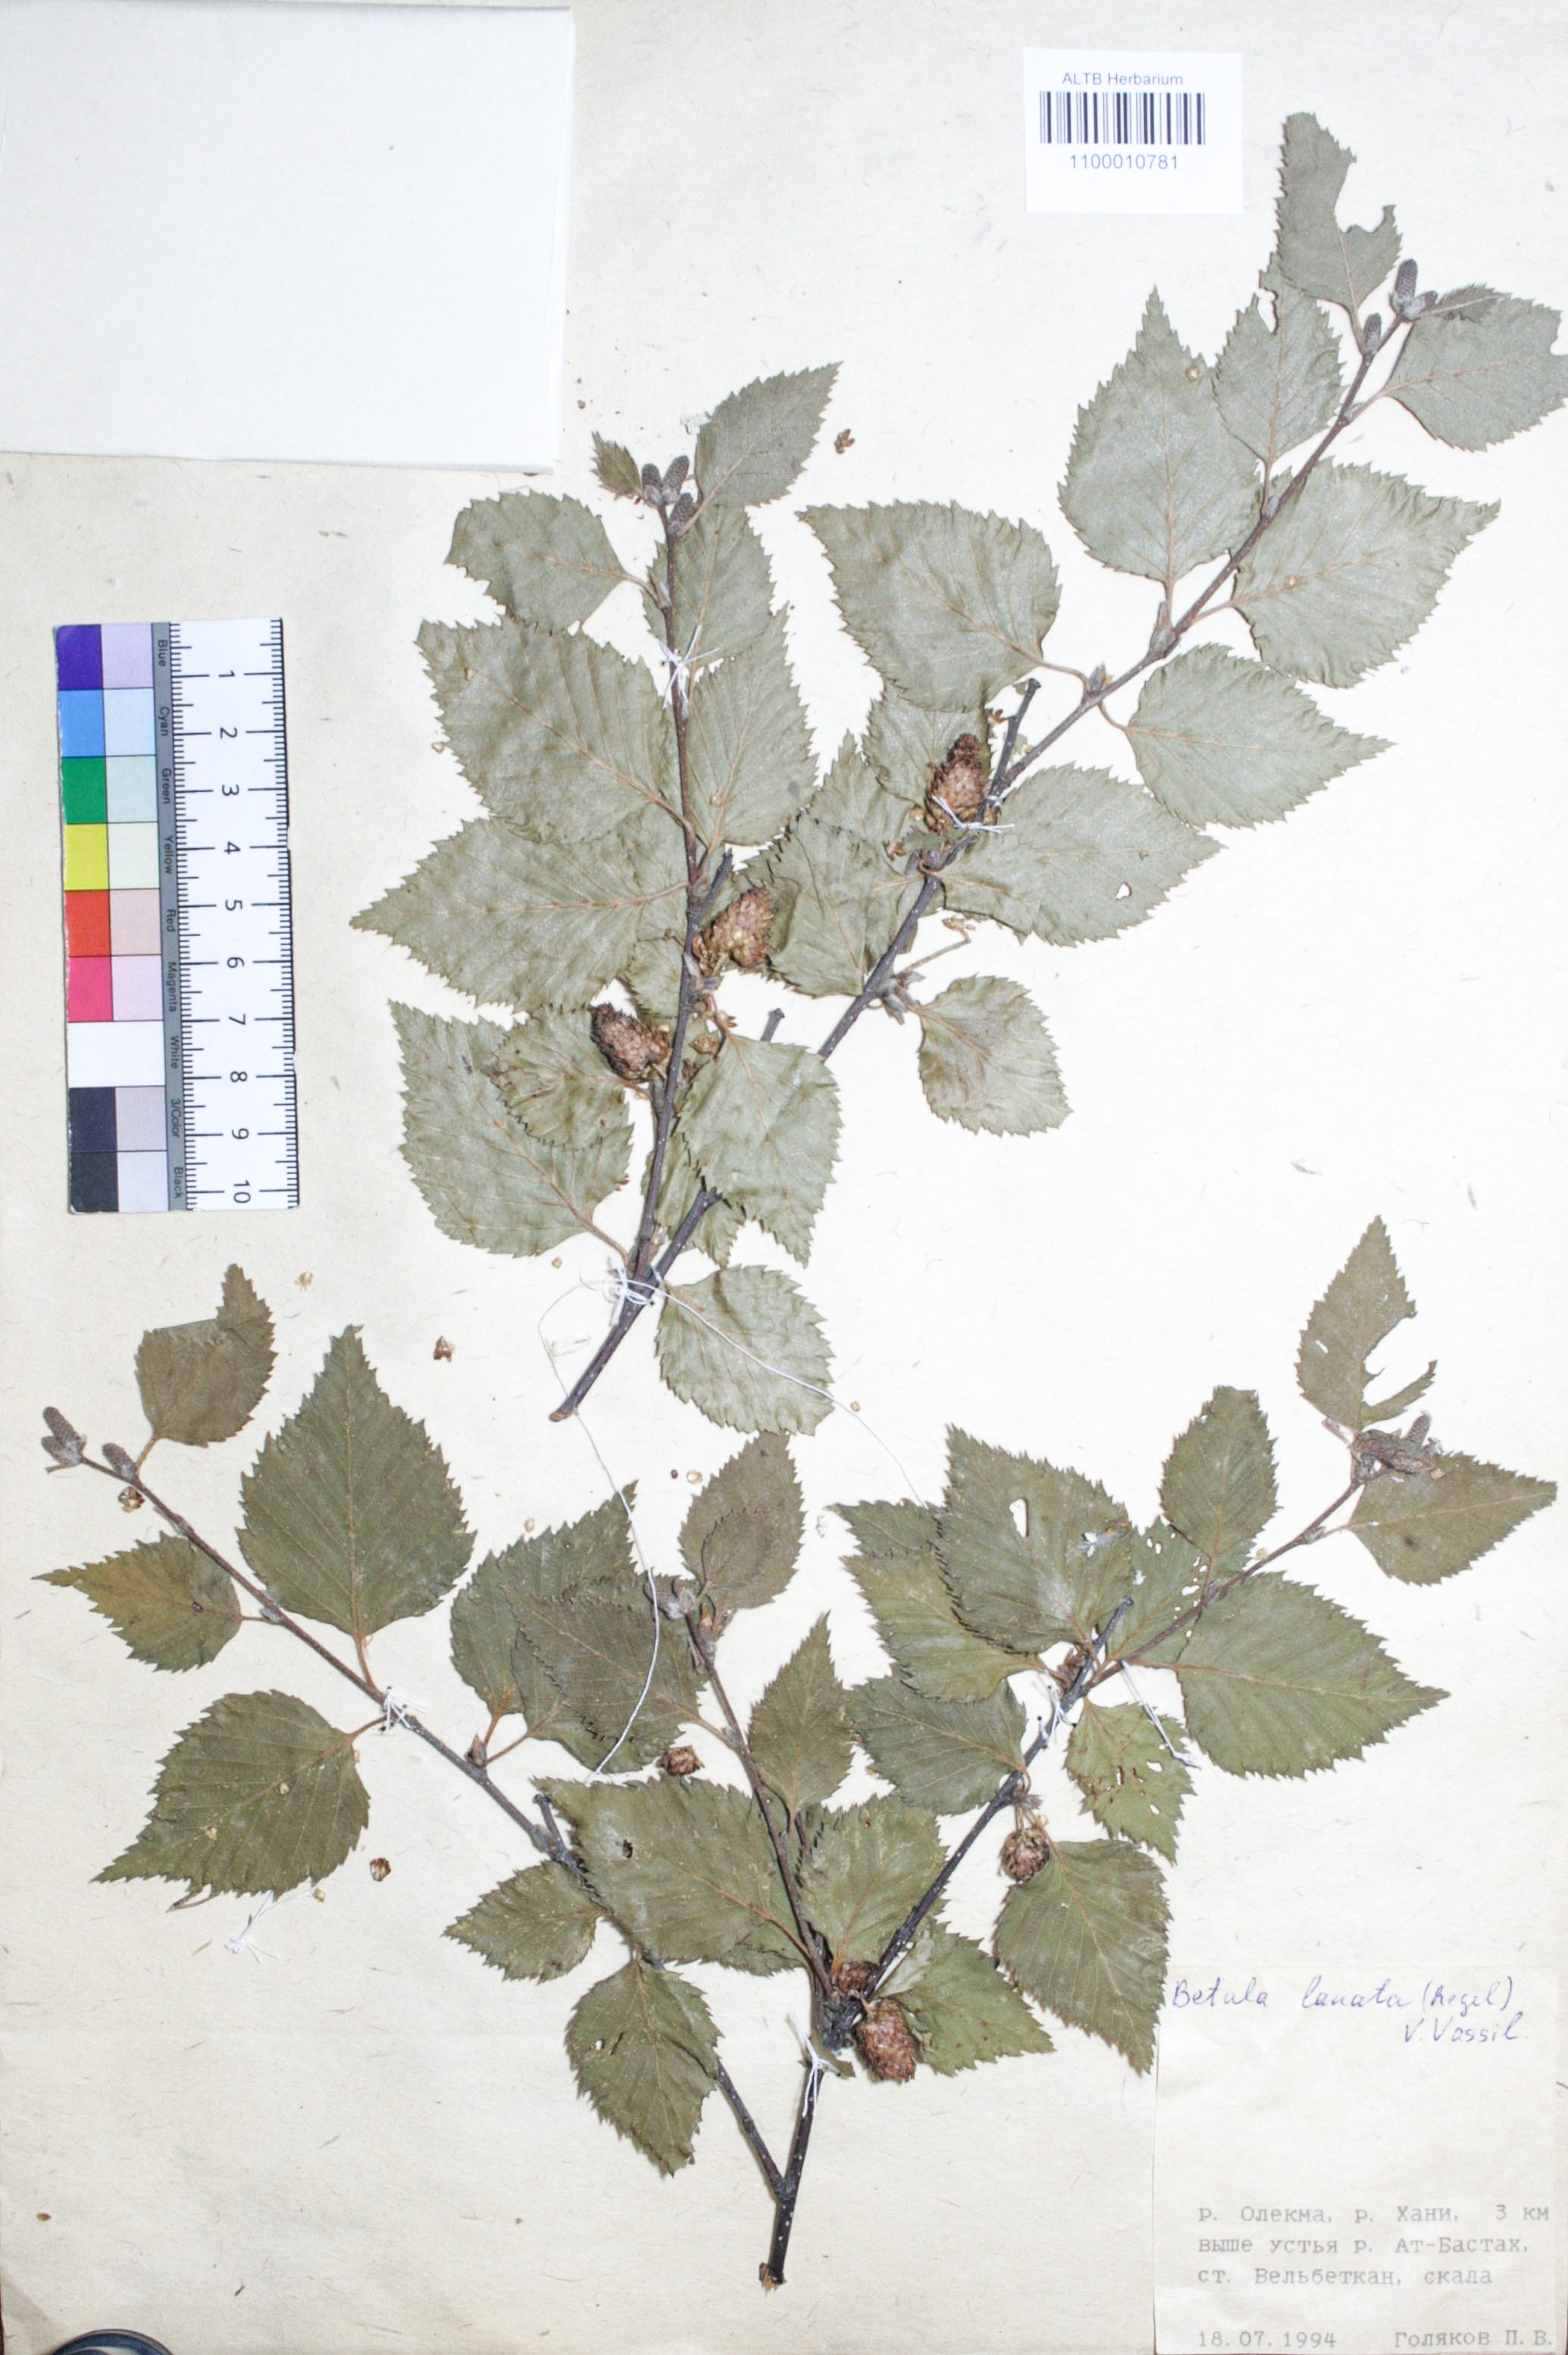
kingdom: Plantae
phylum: Tracheophyta
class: Magnoliopsida
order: Fagales
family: Betulaceae
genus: Betula
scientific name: Betula ermanii
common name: Erman's birch
